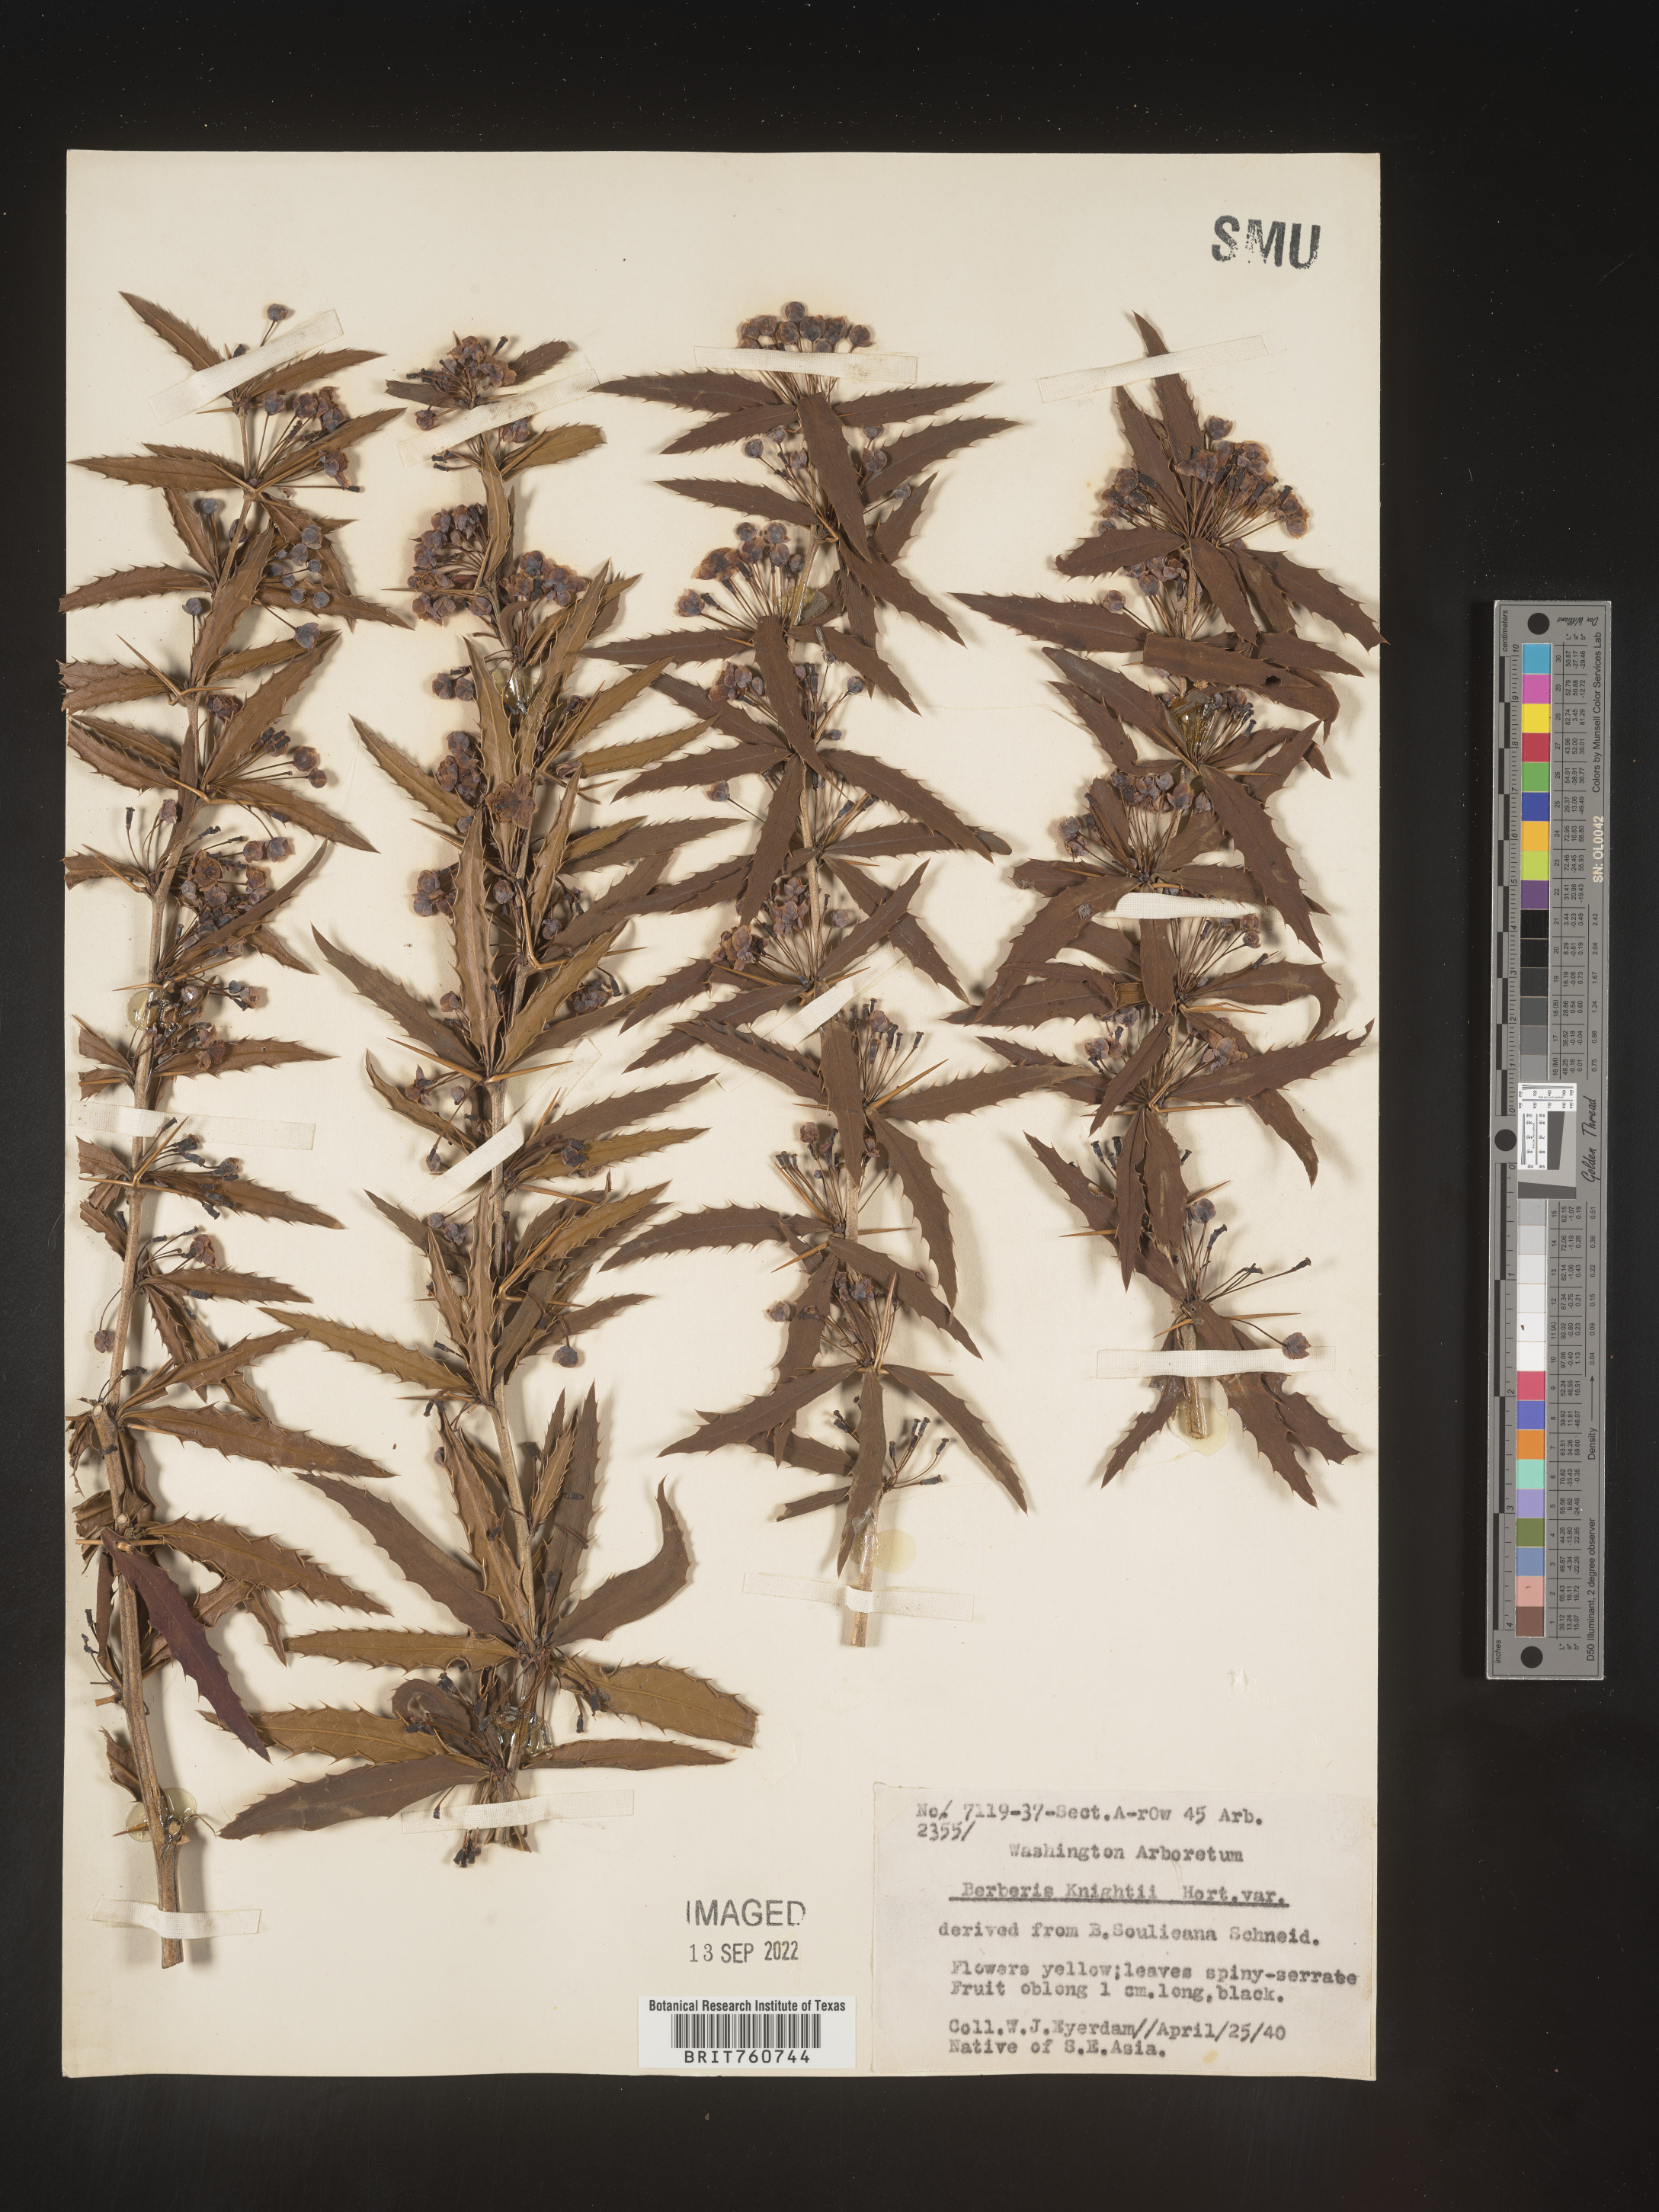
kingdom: Plantae
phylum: Tracheophyta
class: Magnoliopsida
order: Ranunculales
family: Berberidaceae
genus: Berberis
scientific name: Berberis
